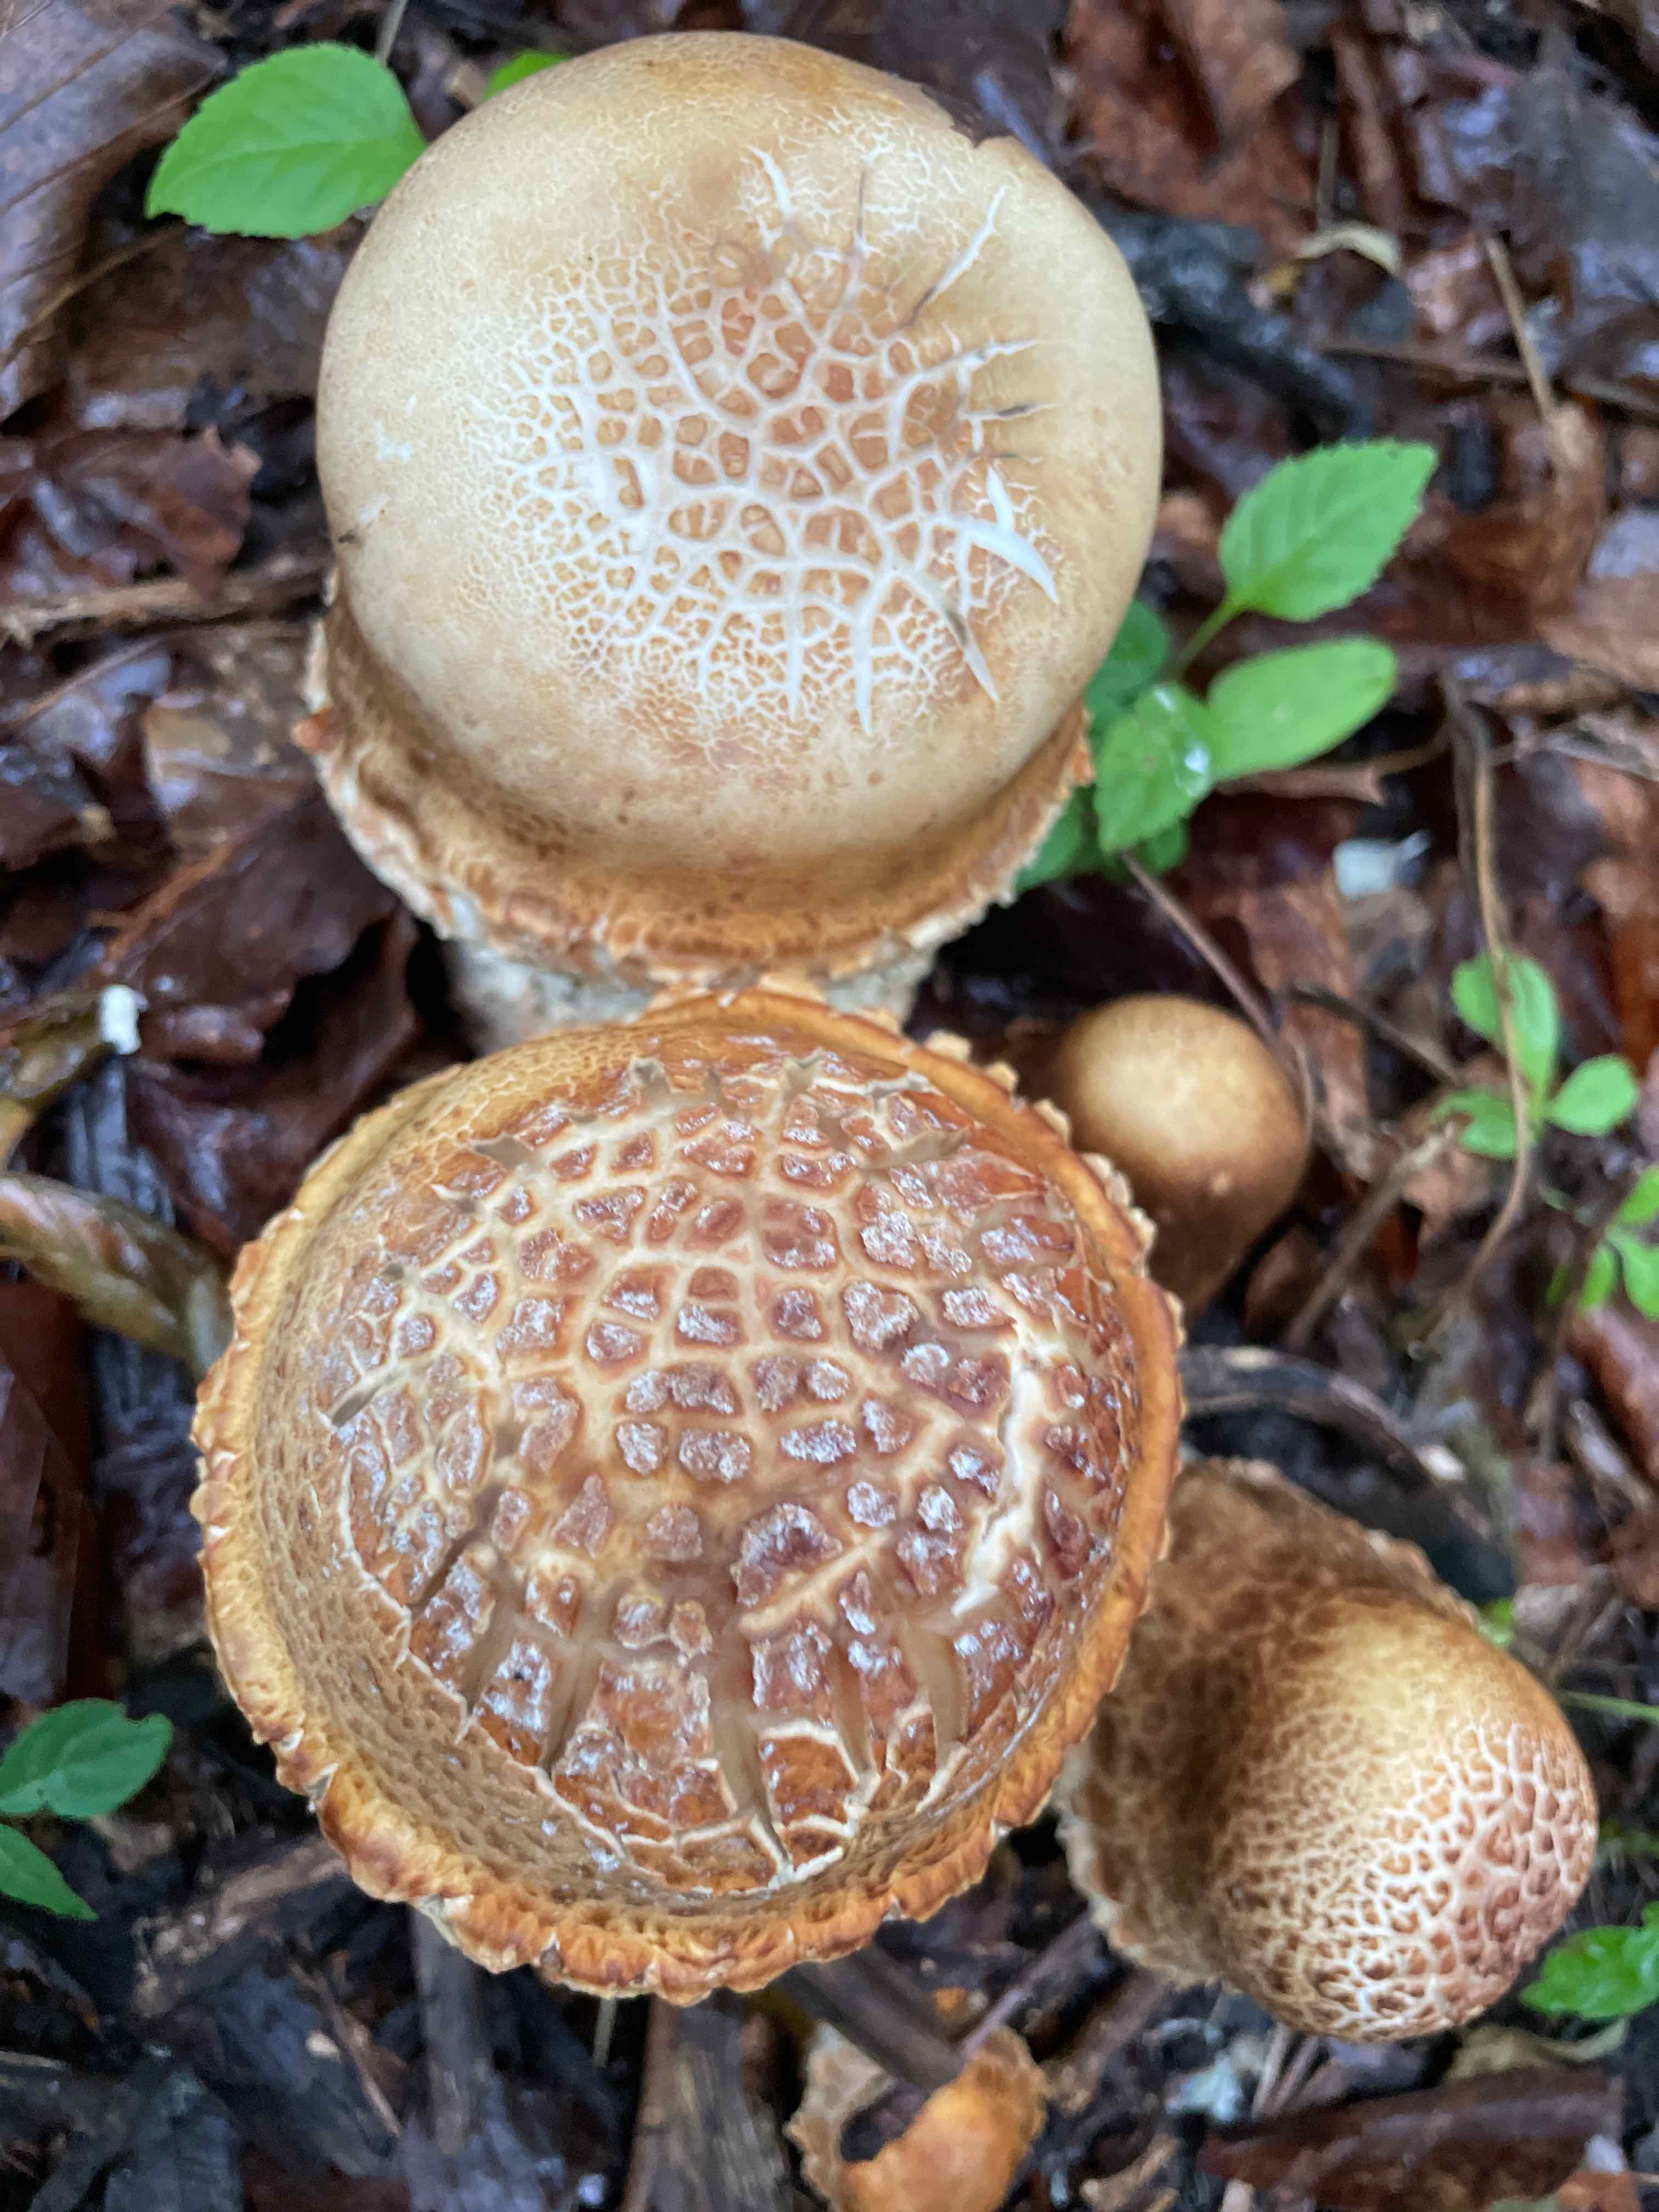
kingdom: Fungi
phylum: Basidiomycota
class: Agaricomycetes
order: Agaricales
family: Amanitaceae
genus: Amanita
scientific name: Amanita rubescens
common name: rødmende fluesvamp
